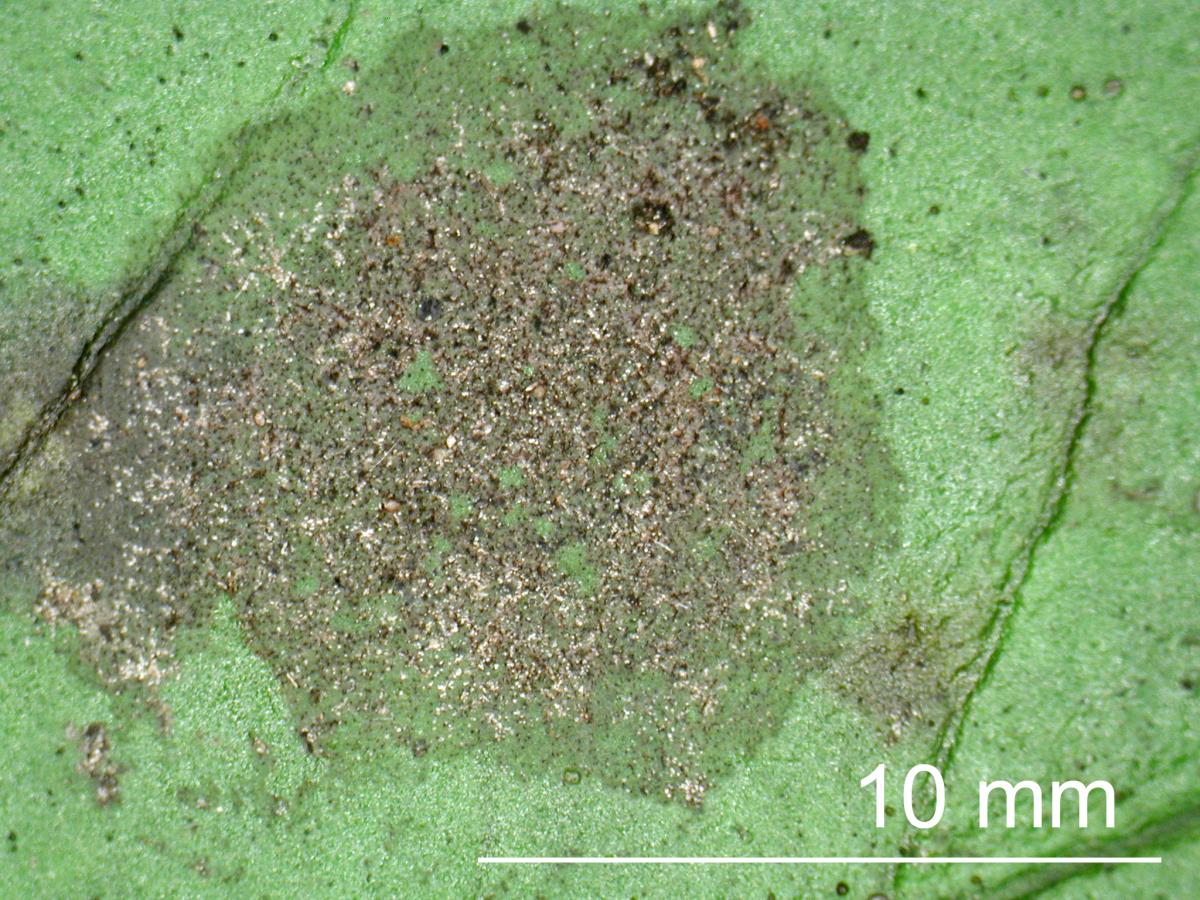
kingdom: Fungi
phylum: Ascomycota
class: Eurotiomycetes
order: Chaetothyriales
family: Coccodiniaceae
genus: Microxyphium
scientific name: Microxyphium
